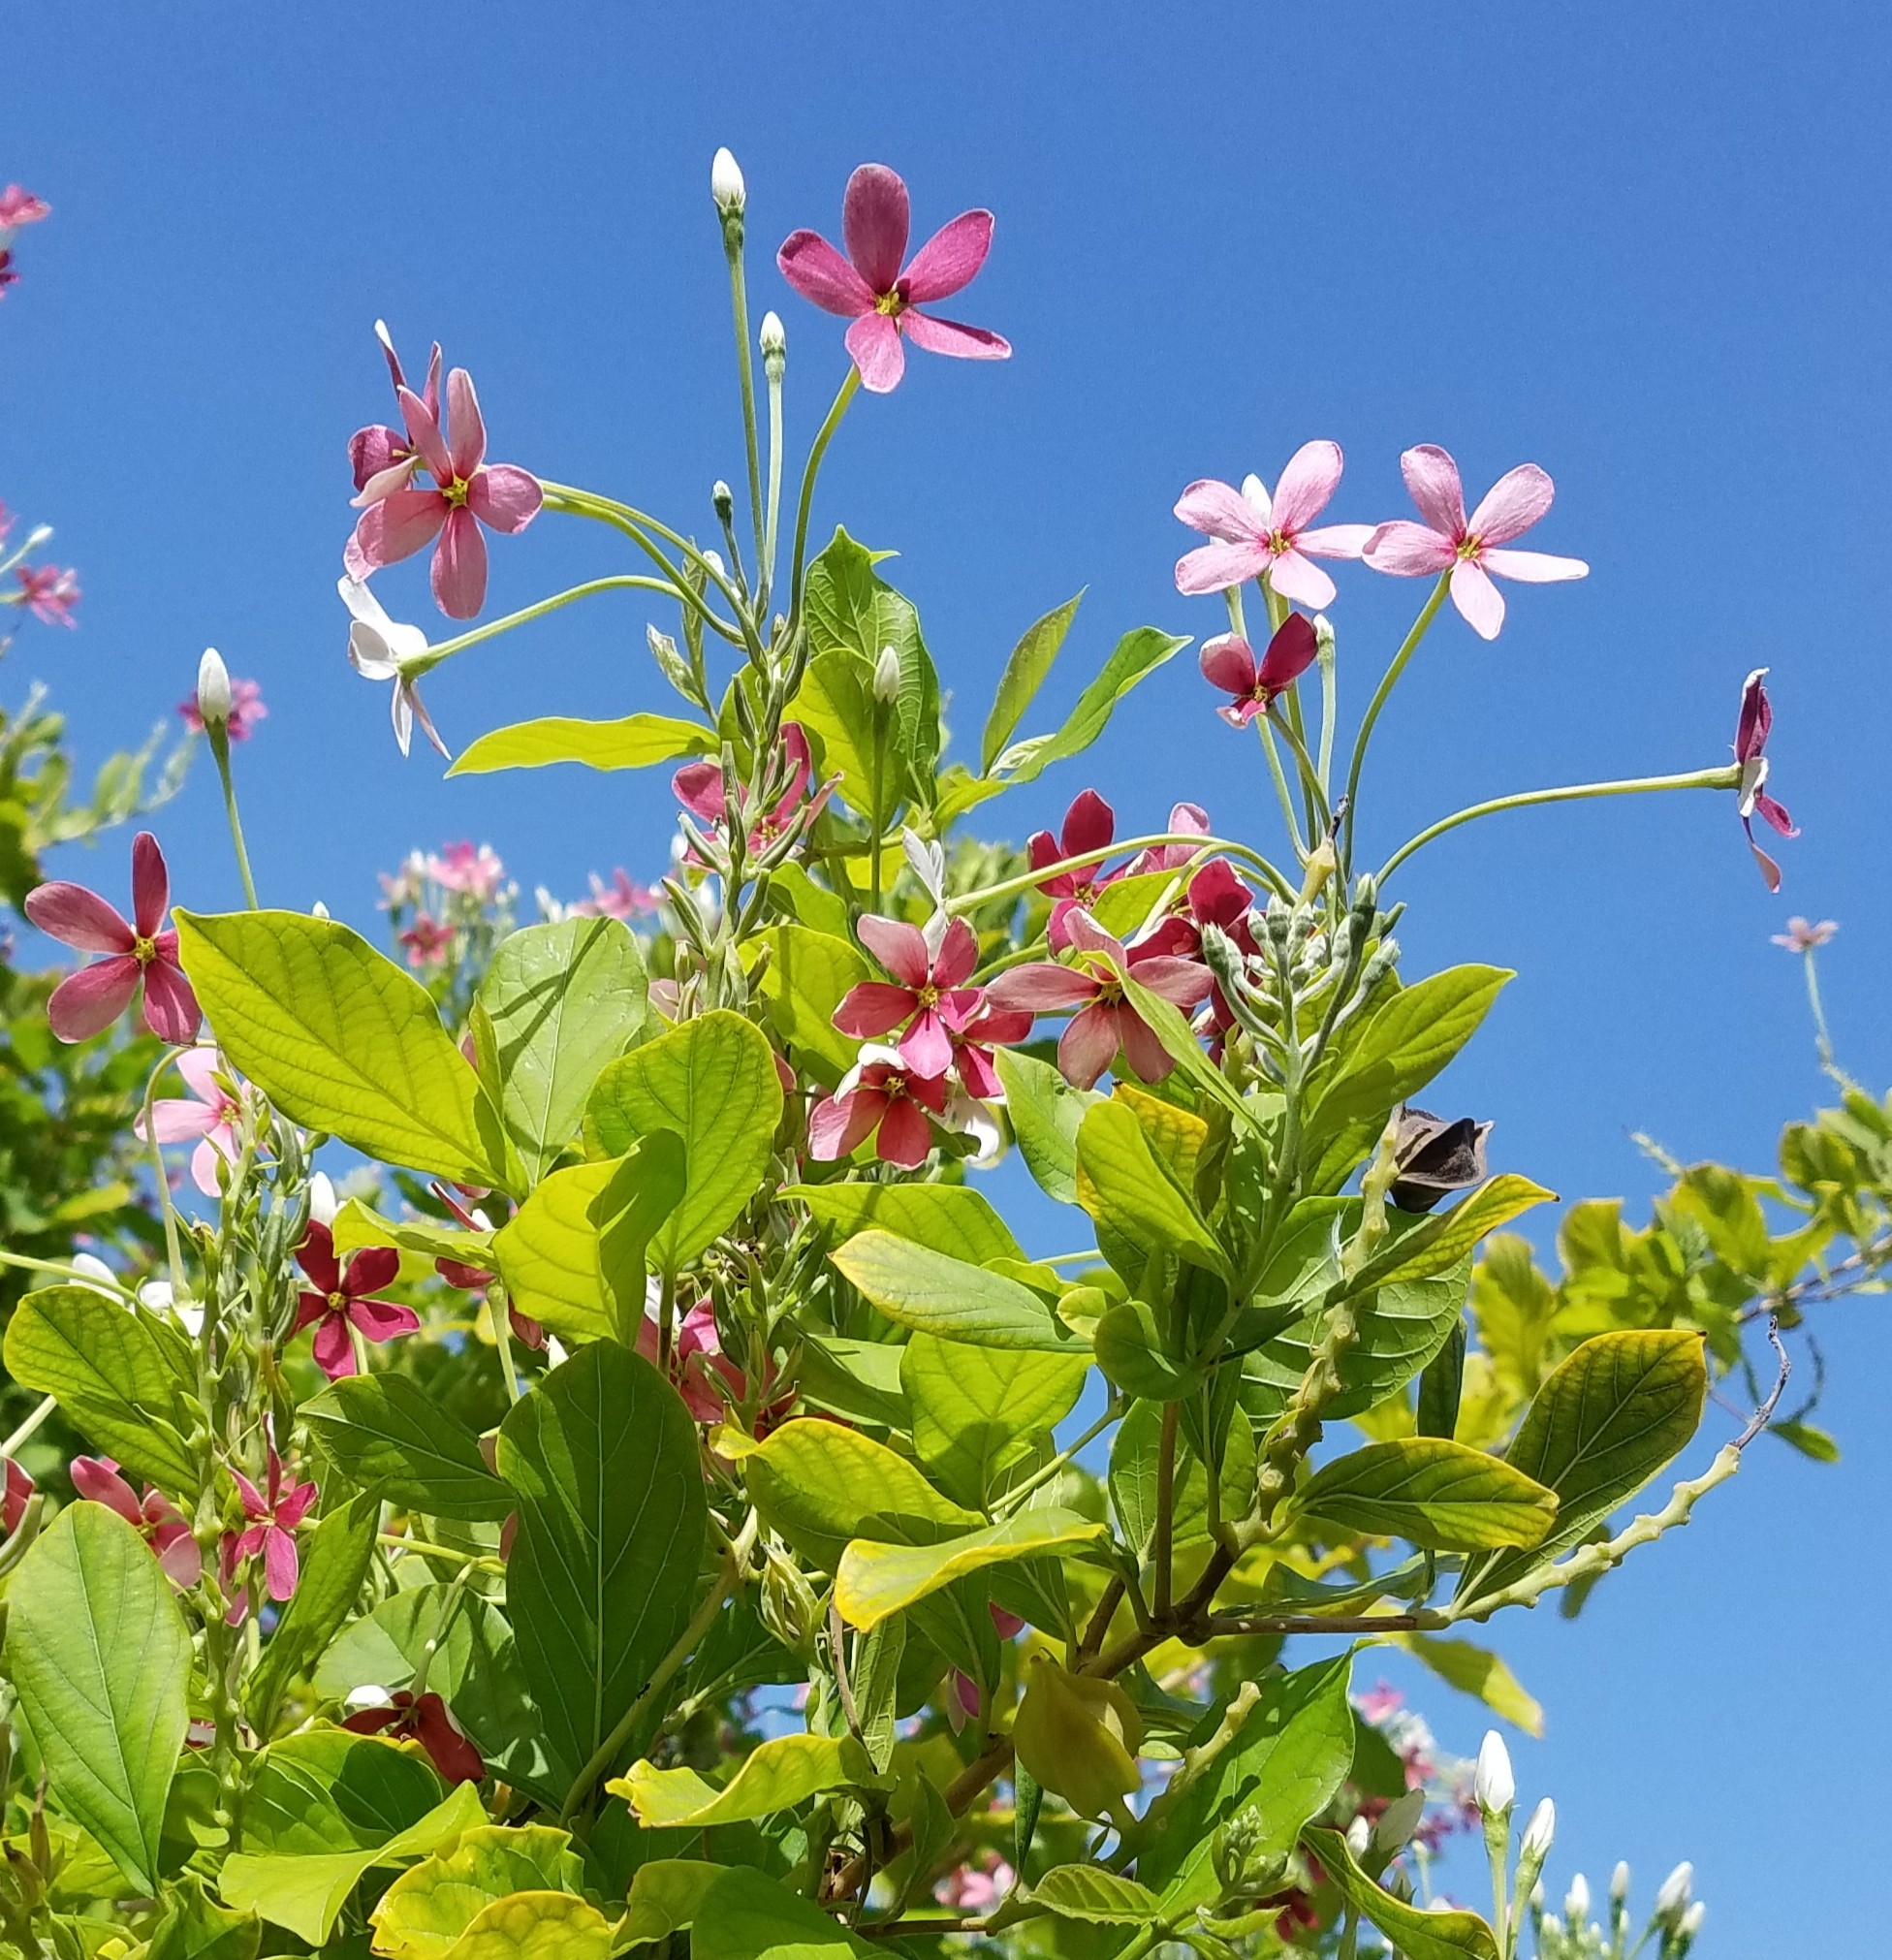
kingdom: Plantae
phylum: Tracheophyta
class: Magnoliopsida
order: Myrtales
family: Combretaceae
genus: Combretum
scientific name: Combretum indicum
